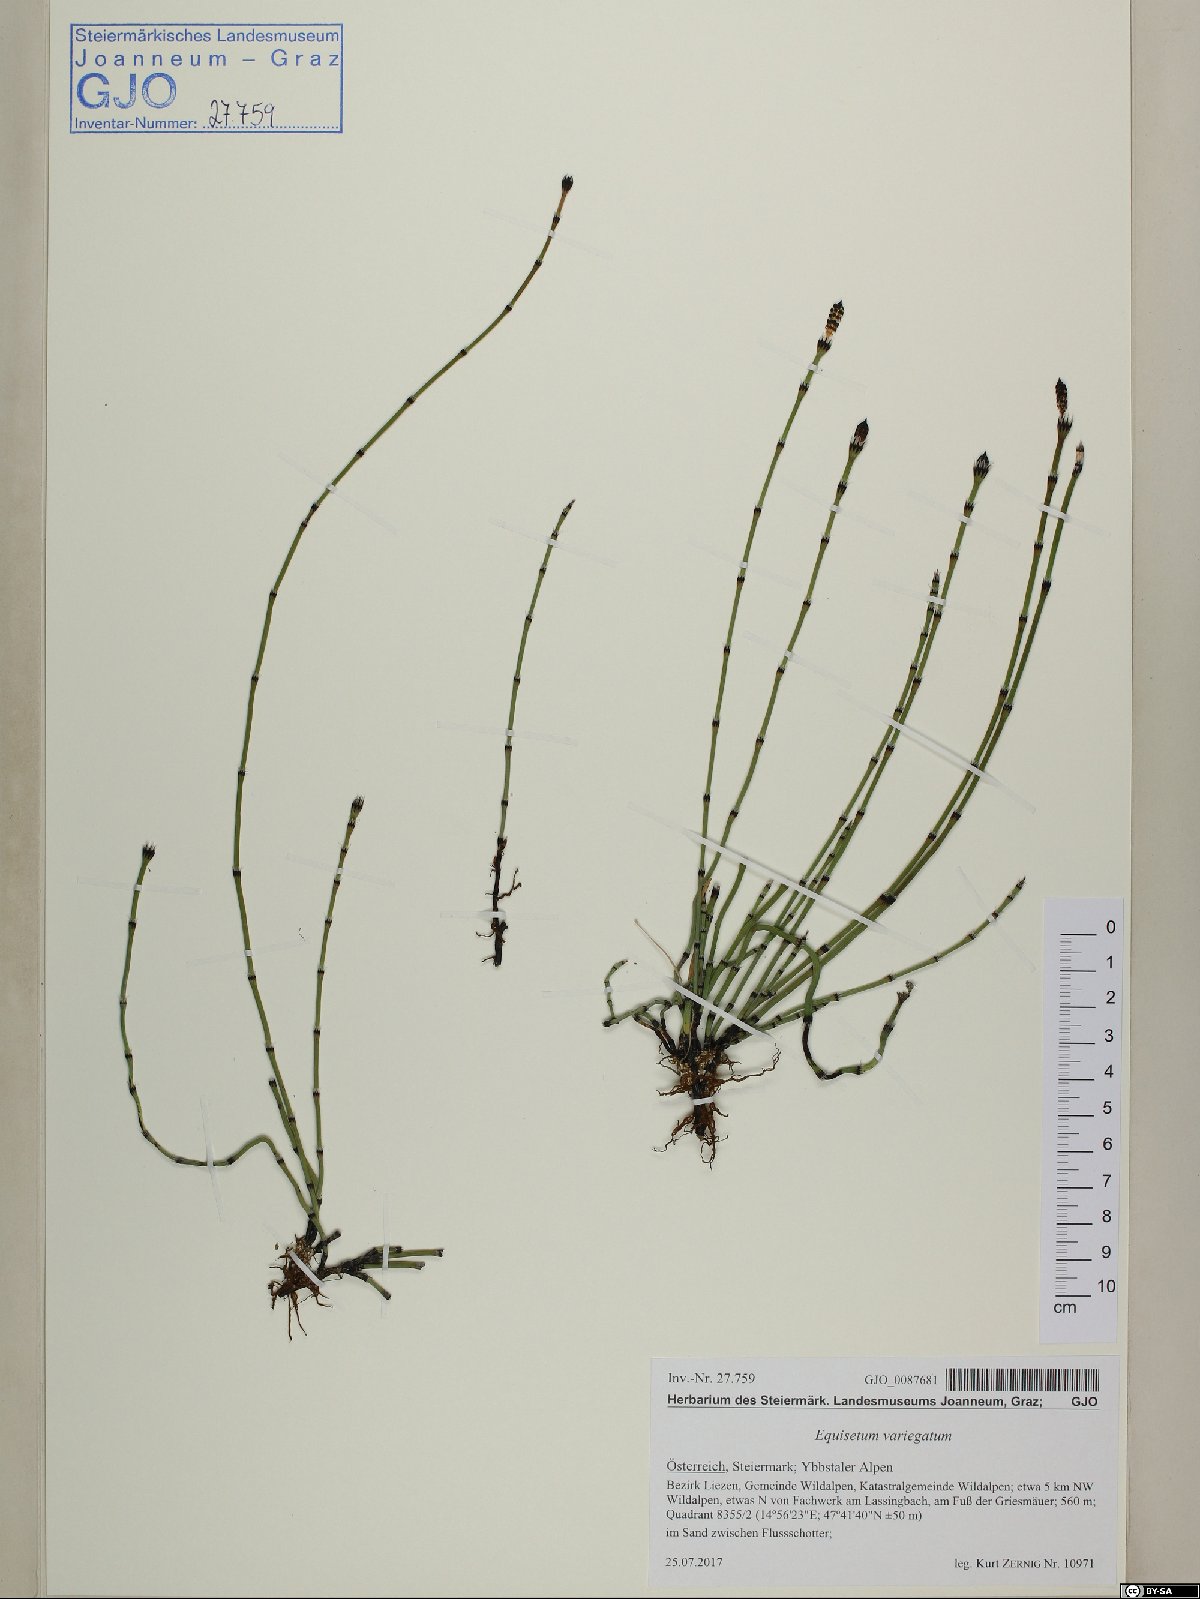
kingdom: Plantae
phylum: Tracheophyta
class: Polypodiopsida
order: Equisetales
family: Equisetaceae
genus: Equisetum
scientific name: Equisetum variegatum
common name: Variegated horsetail
